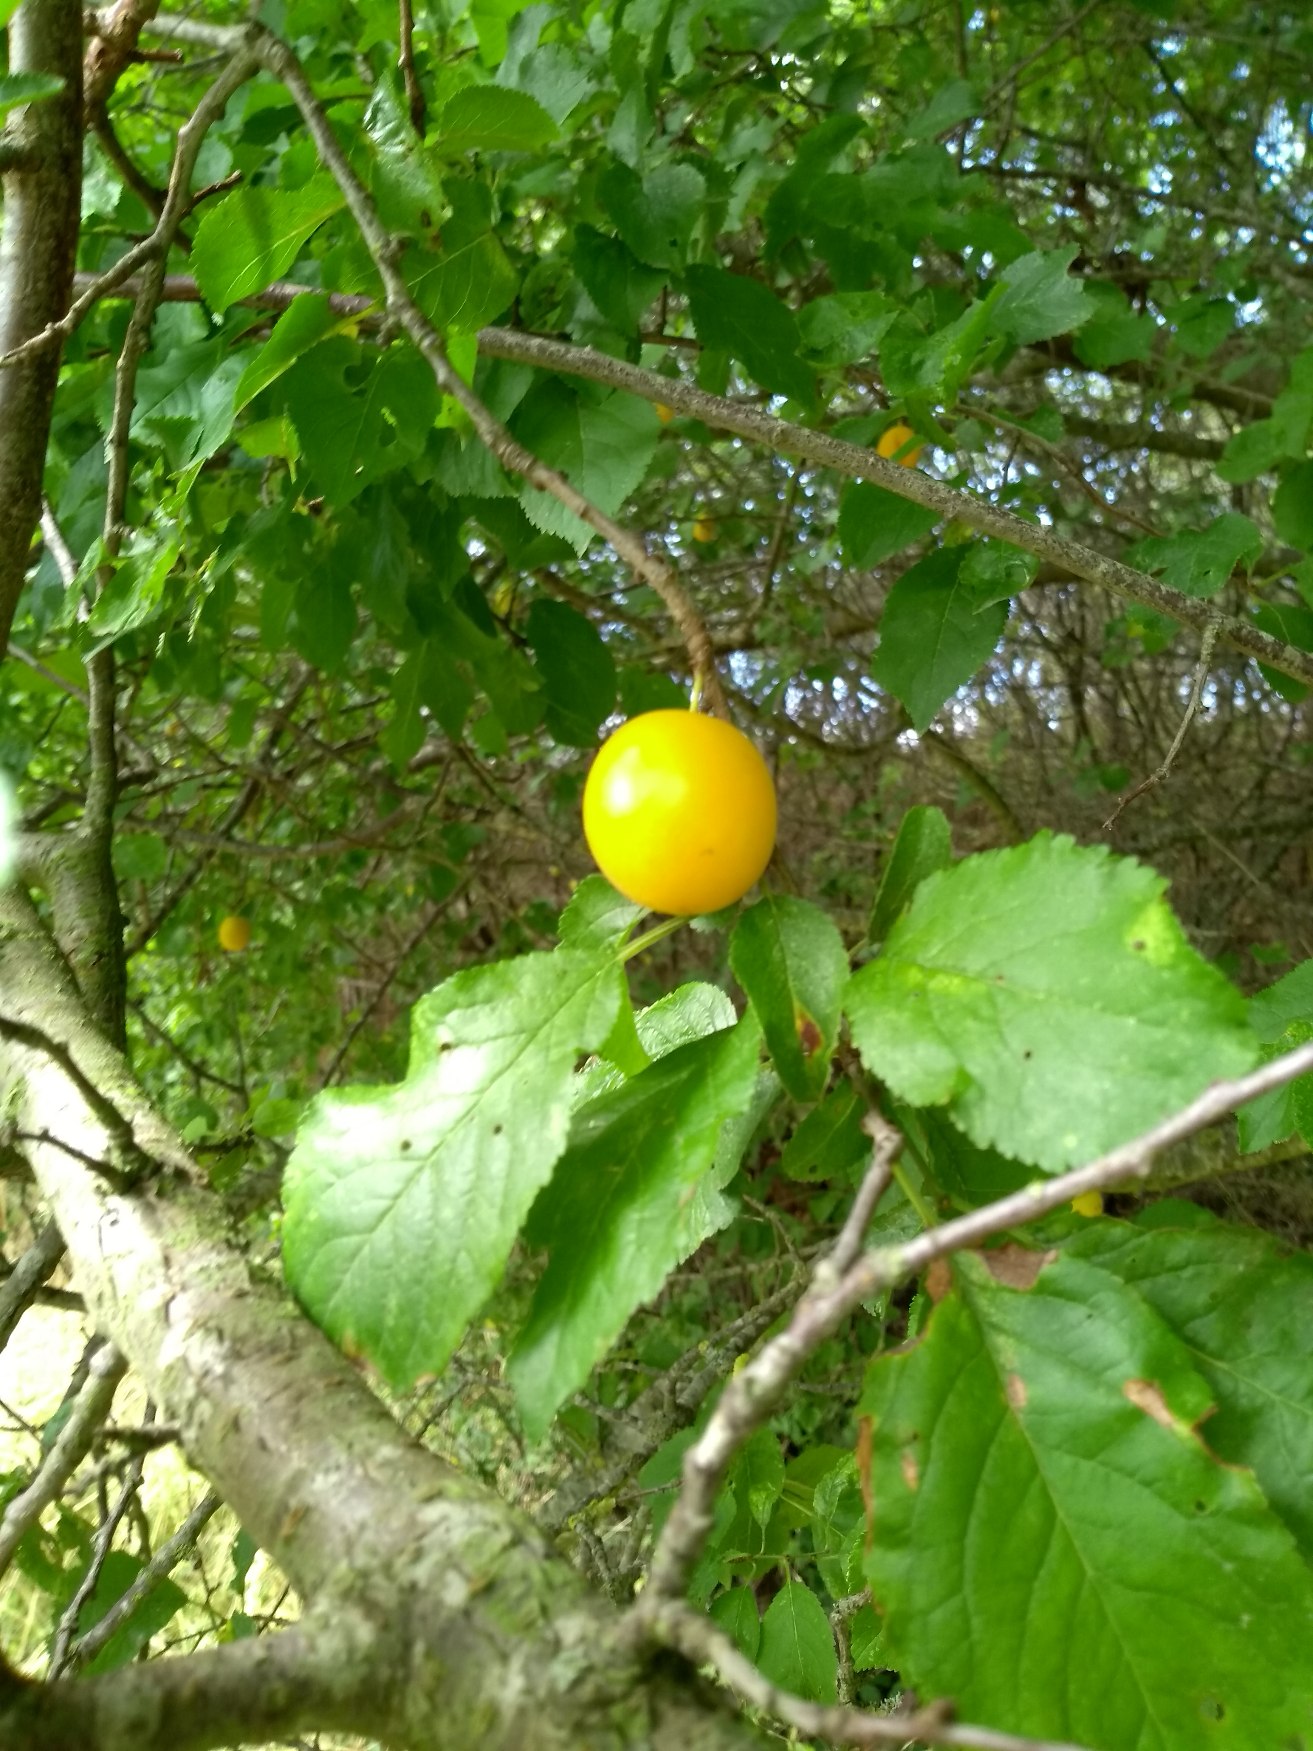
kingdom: Plantae
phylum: Tracheophyta
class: Magnoliopsida
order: Rosales
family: Rosaceae
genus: Prunus
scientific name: Prunus cerasifera
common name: Mirabel
